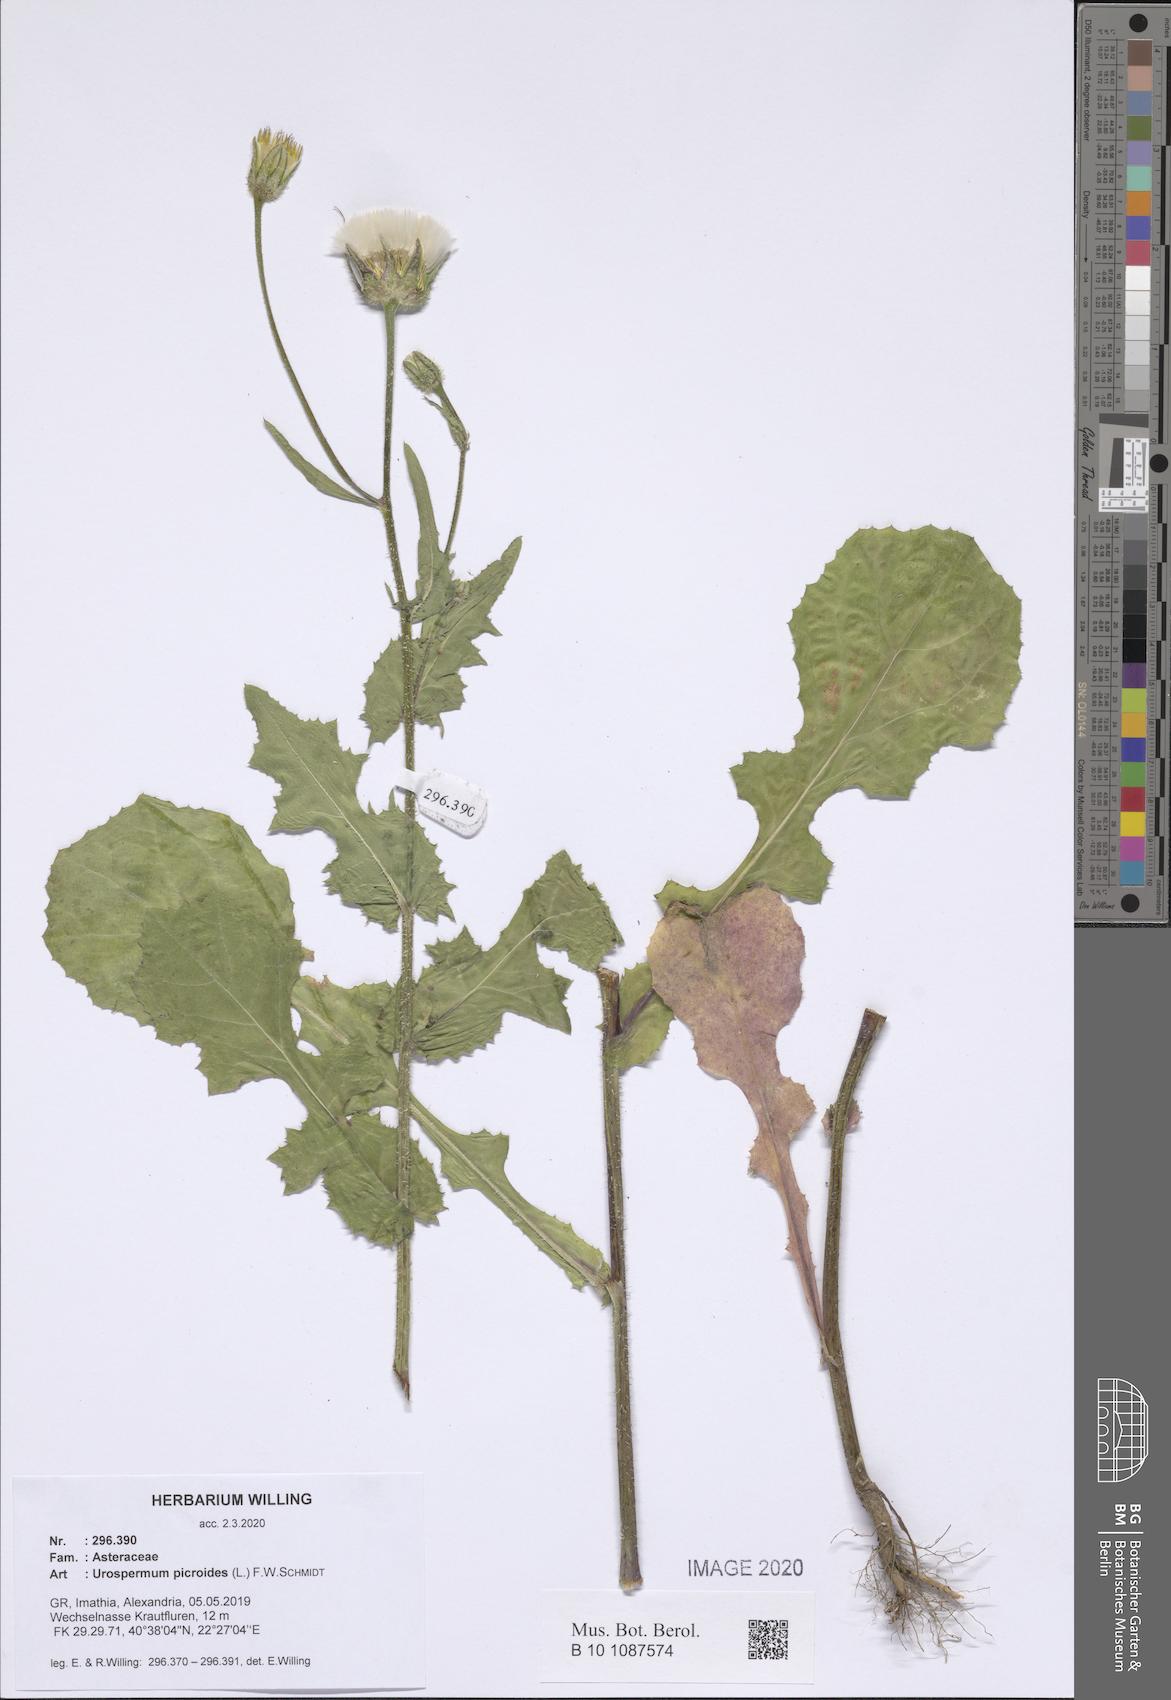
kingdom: Plantae
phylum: Tracheophyta
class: Magnoliopsida
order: Asterales
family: Asteraceae
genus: Urospermum
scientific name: Urospermum picroides
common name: False hawkbit
